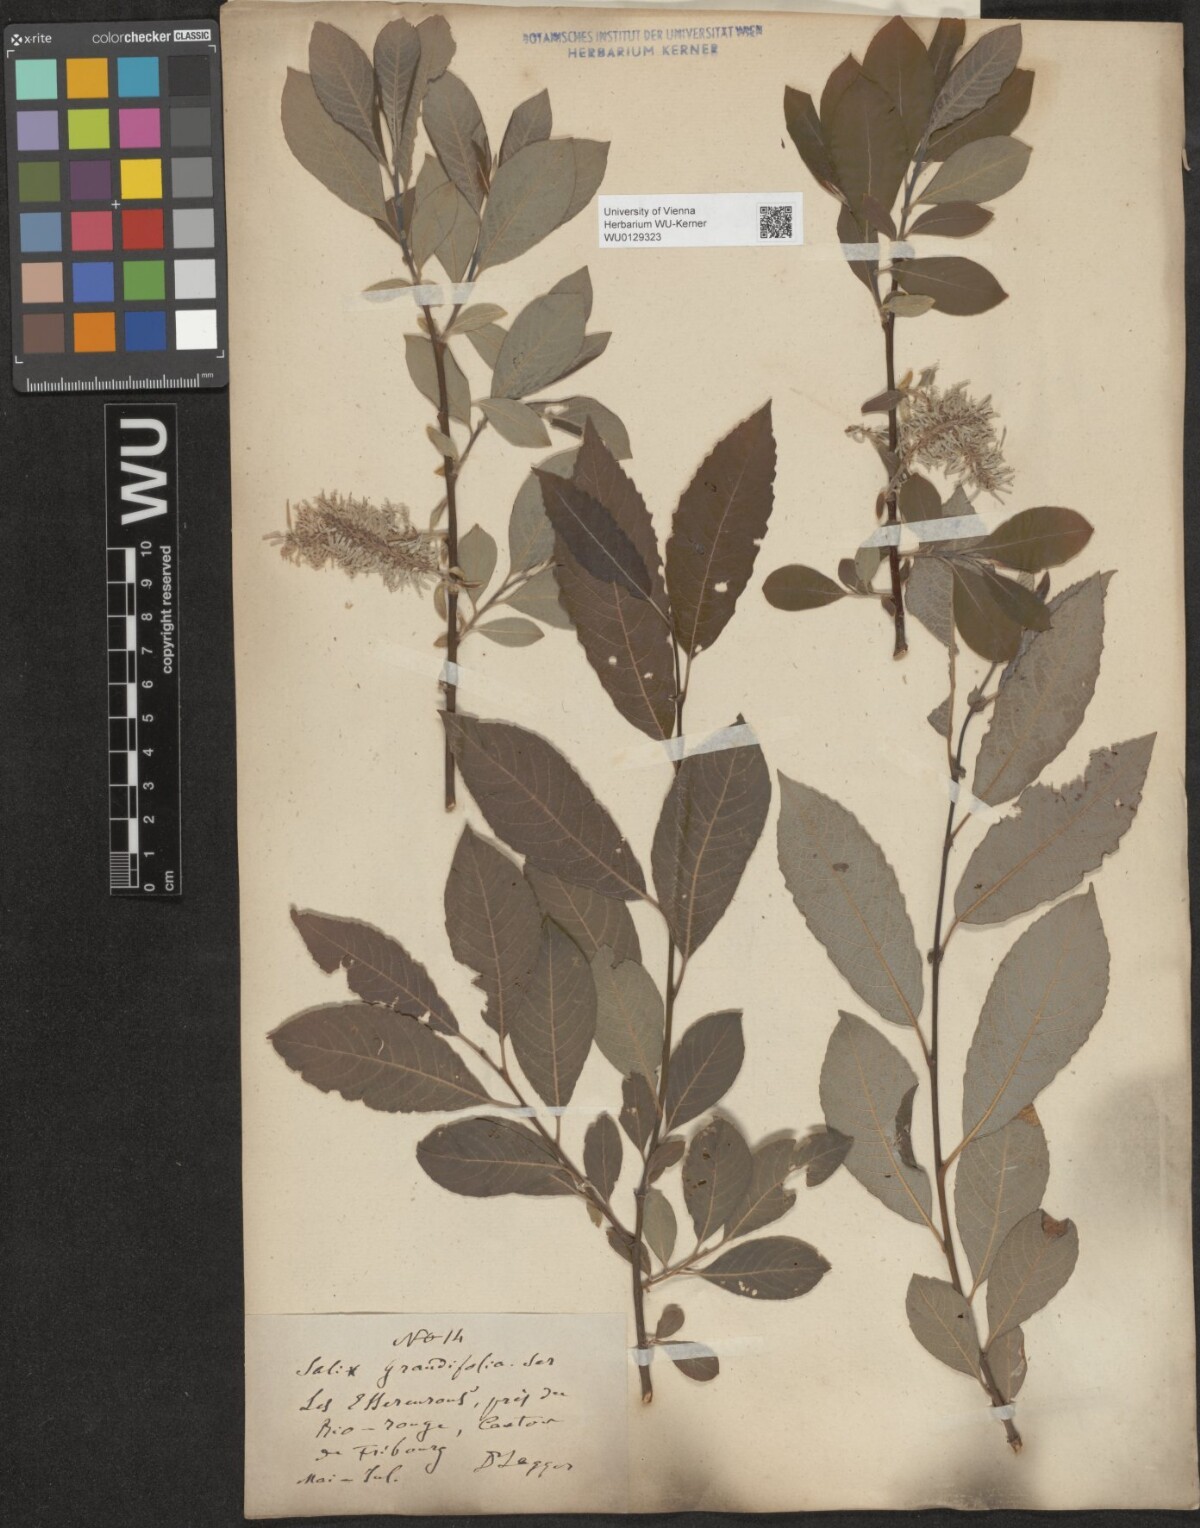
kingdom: Plantae
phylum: Tracheophyta
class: Magnoliopsida
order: Malpighiales
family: Salicaceae
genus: Salix
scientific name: Salix appendiculata
